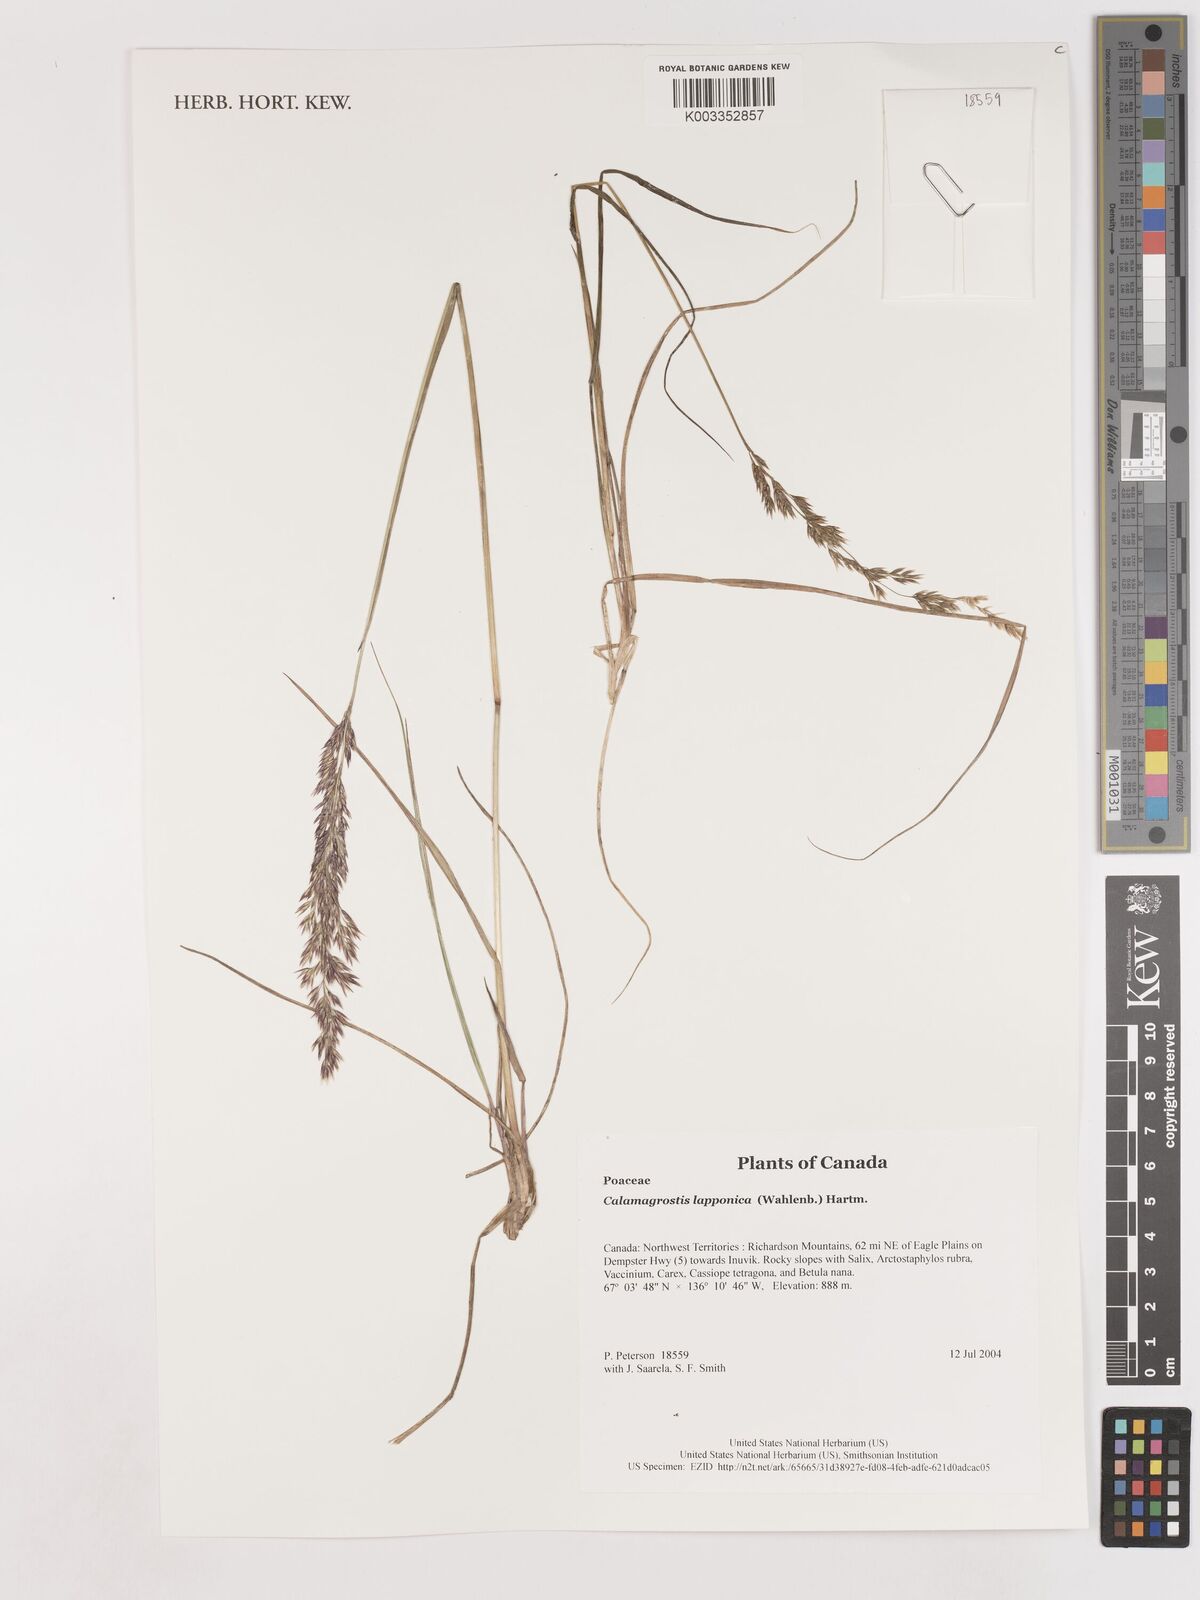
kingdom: Plantae
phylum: Tracheophyta
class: Liliopsida
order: Poales
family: Poaceae
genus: Calamagrostis
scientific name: Calamagrostis lapponica
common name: Lapland reedgrass
